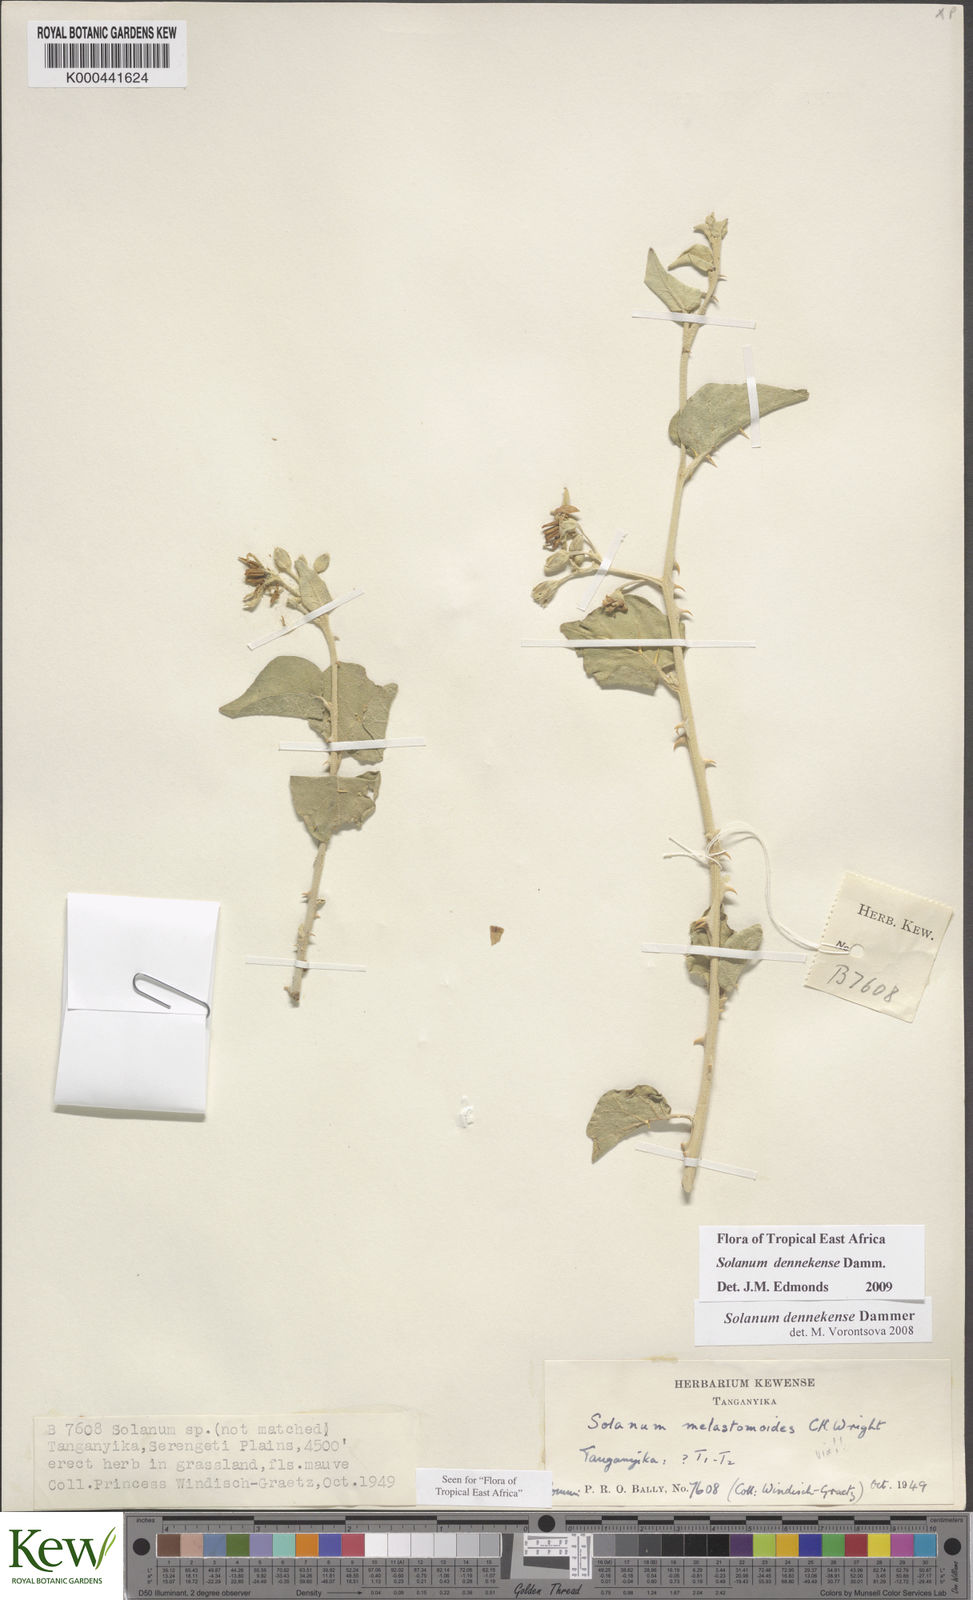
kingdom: Plantae
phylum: Tracheophyta
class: Magnoliopsida
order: Solanales
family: Solanaceae
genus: Solanum
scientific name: Solanum dennekense
